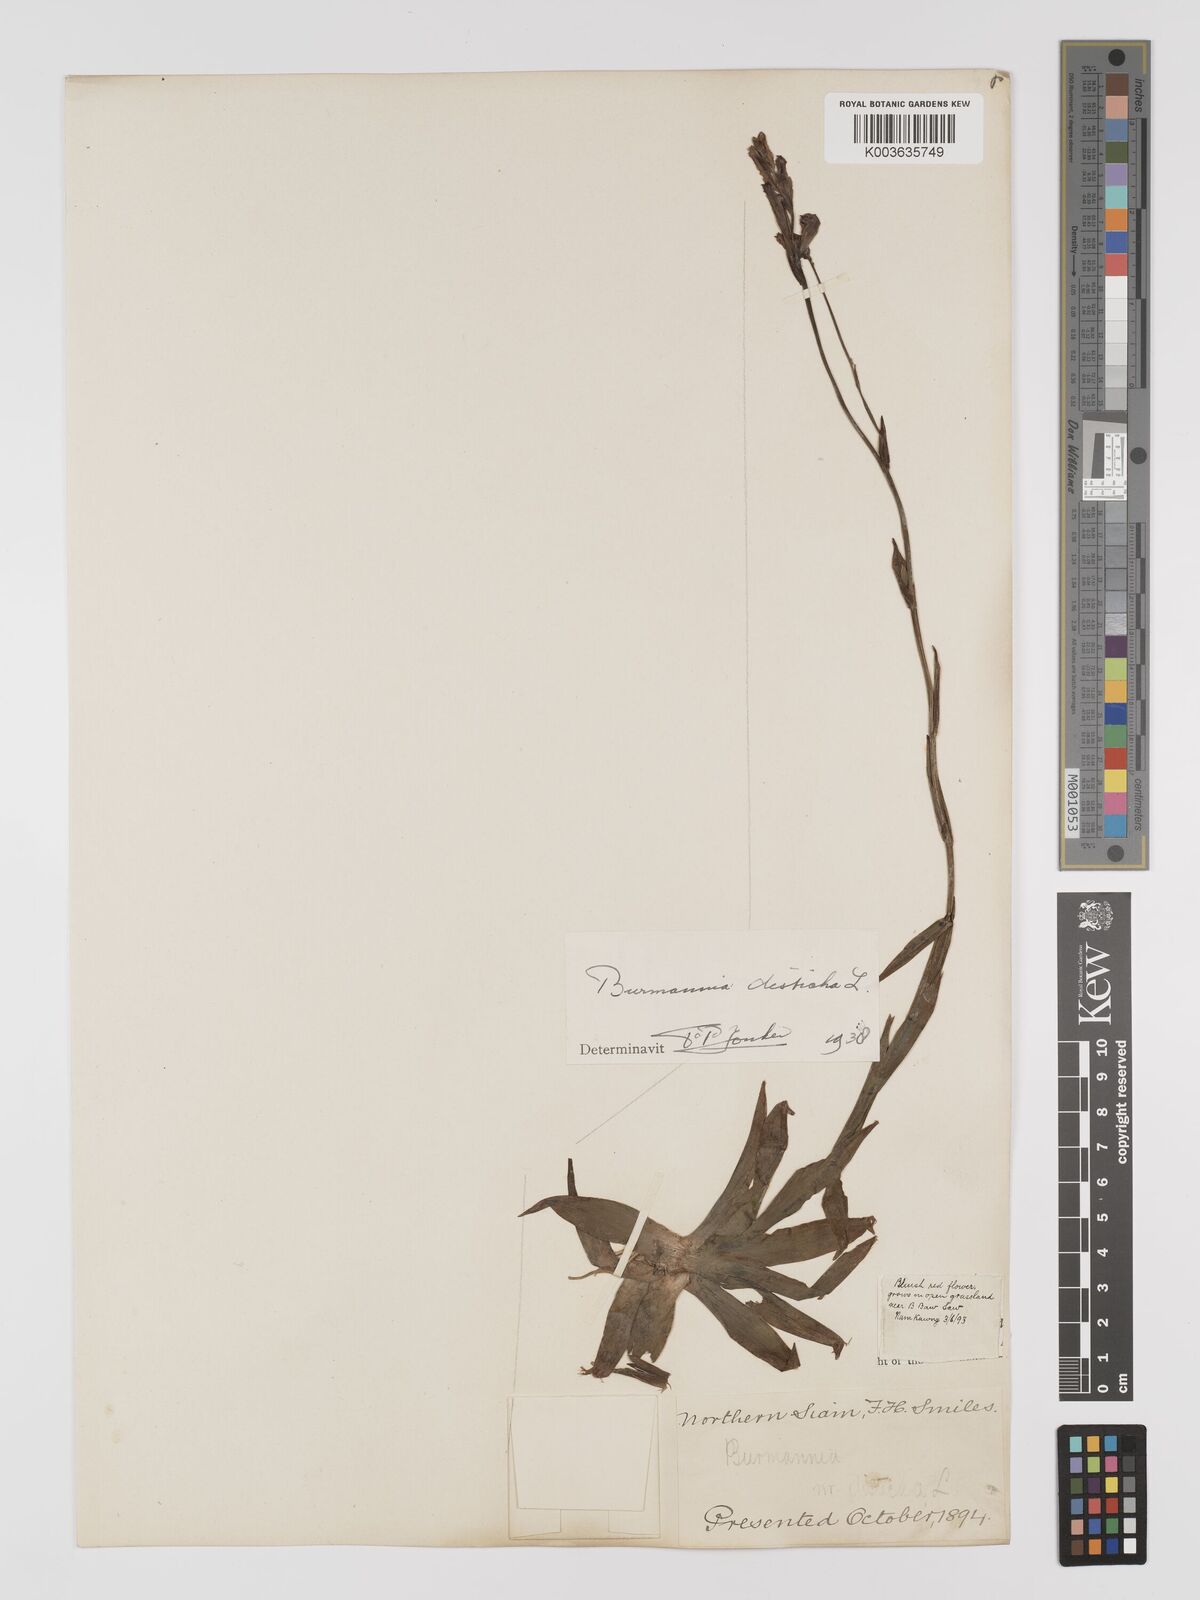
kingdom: Plantae
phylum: Tracheophyta
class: Liliopsida
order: Dioscoreales
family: Burmanniaceae
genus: Burmannia
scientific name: Burmannia disticha
